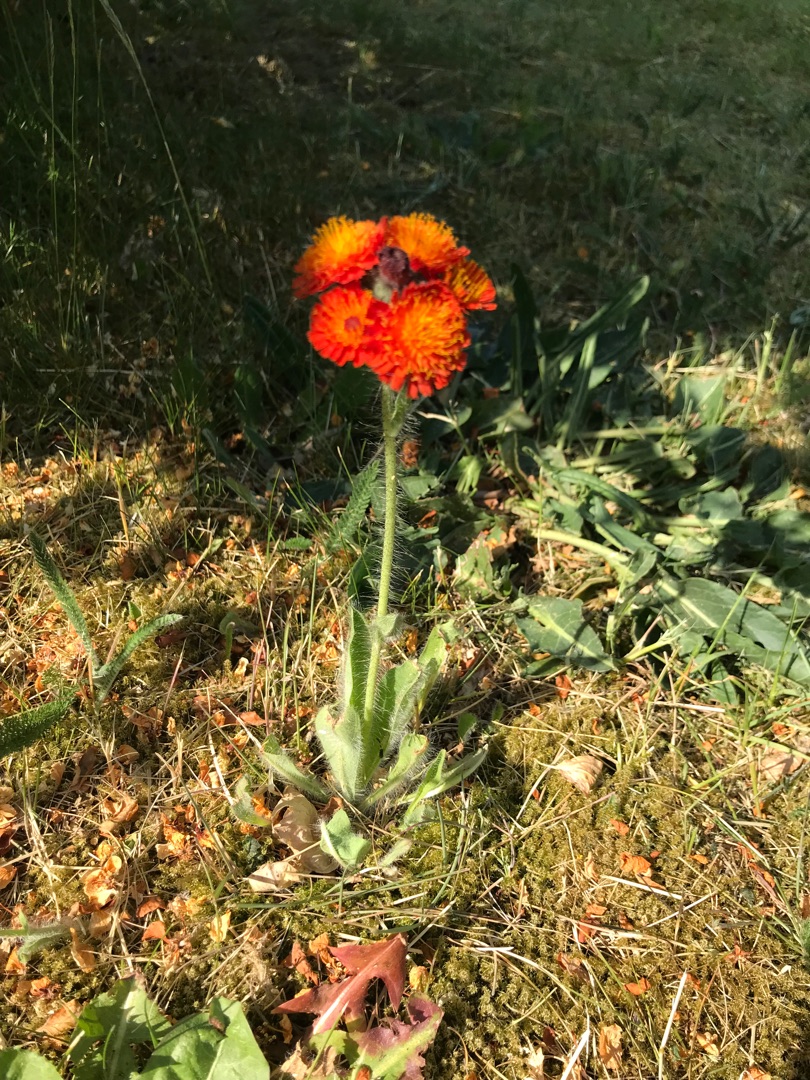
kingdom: Plantae
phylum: Tracheophyta
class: Magnoliopsida
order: Asterales
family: Asteraceae
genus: Pilosella
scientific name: Pilosella aurantiaca
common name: Pomerans-høgeurt
